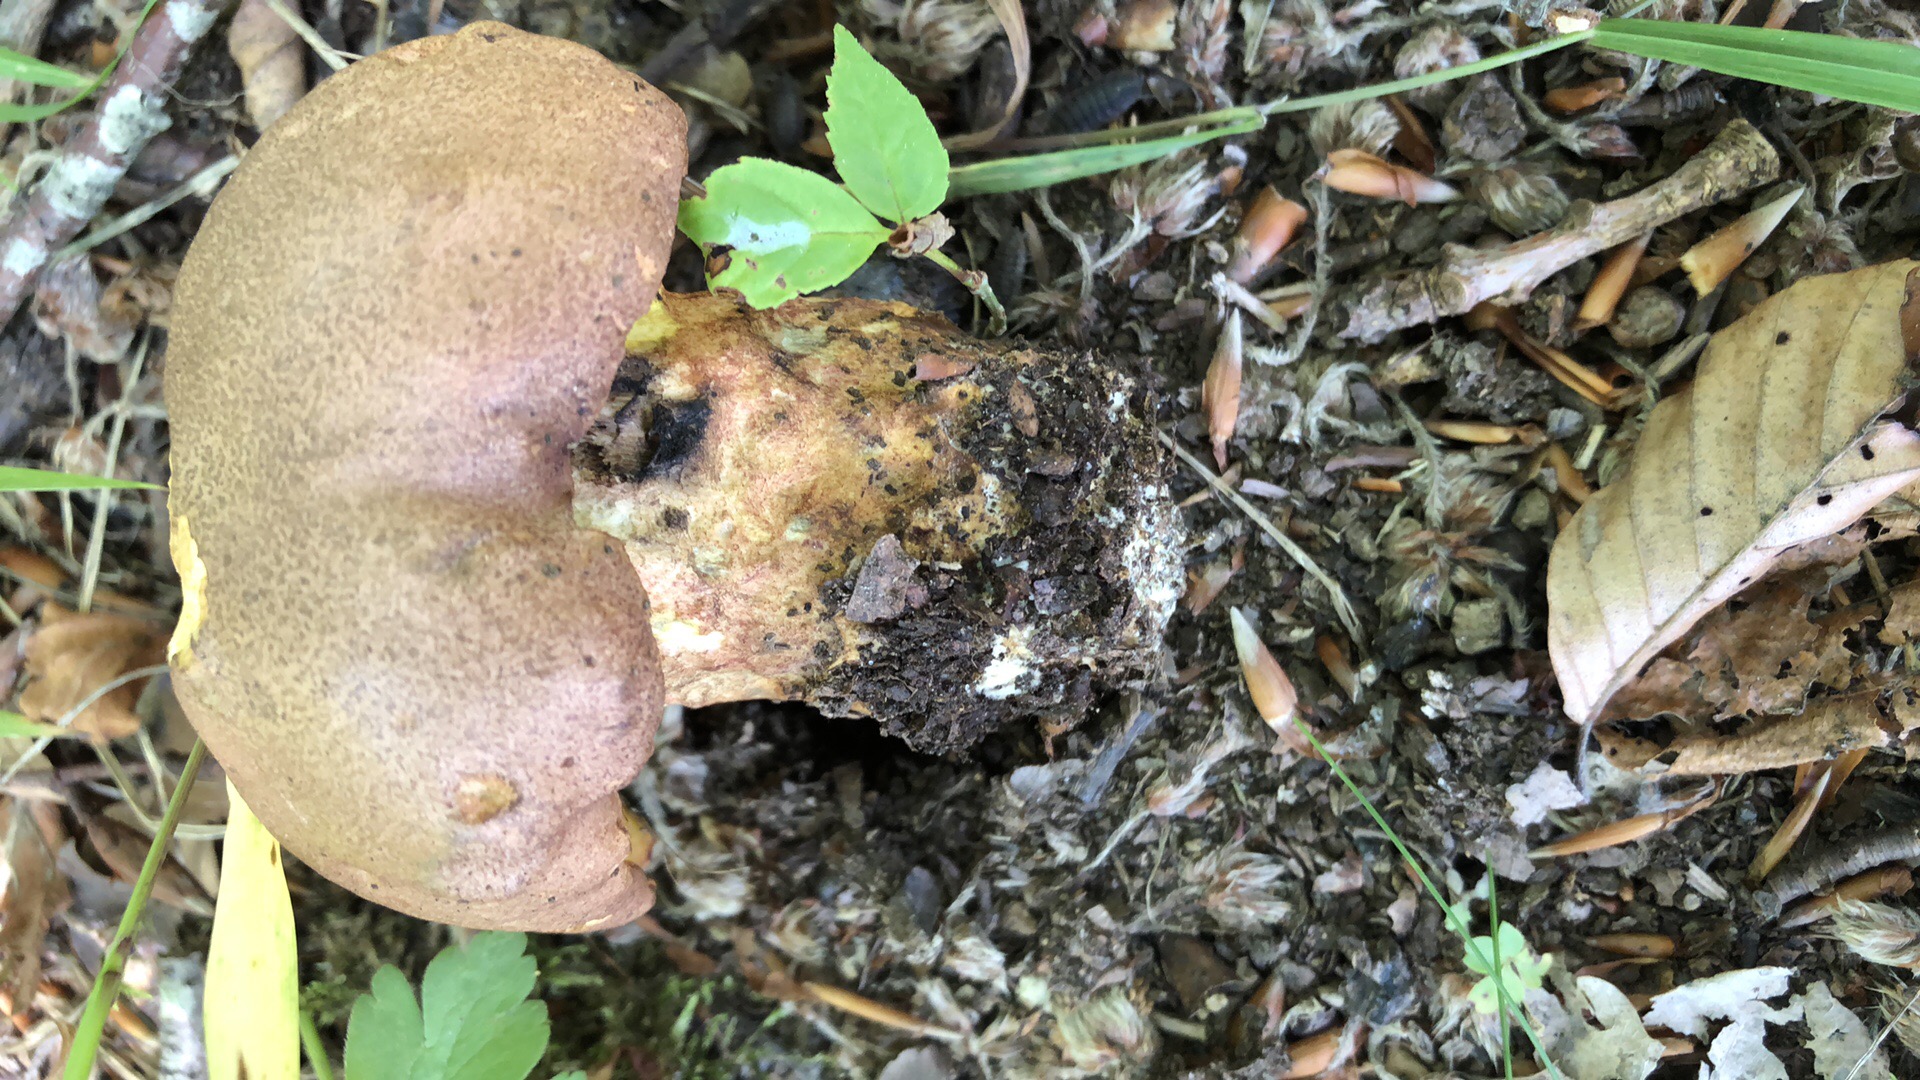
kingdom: Fungi
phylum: Basidiomycota
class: Agaricomycetes
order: Boletales
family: Boletaceae
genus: Butyriboletus
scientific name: Butyriboletus appendiculatus
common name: tenstokket rørhat
